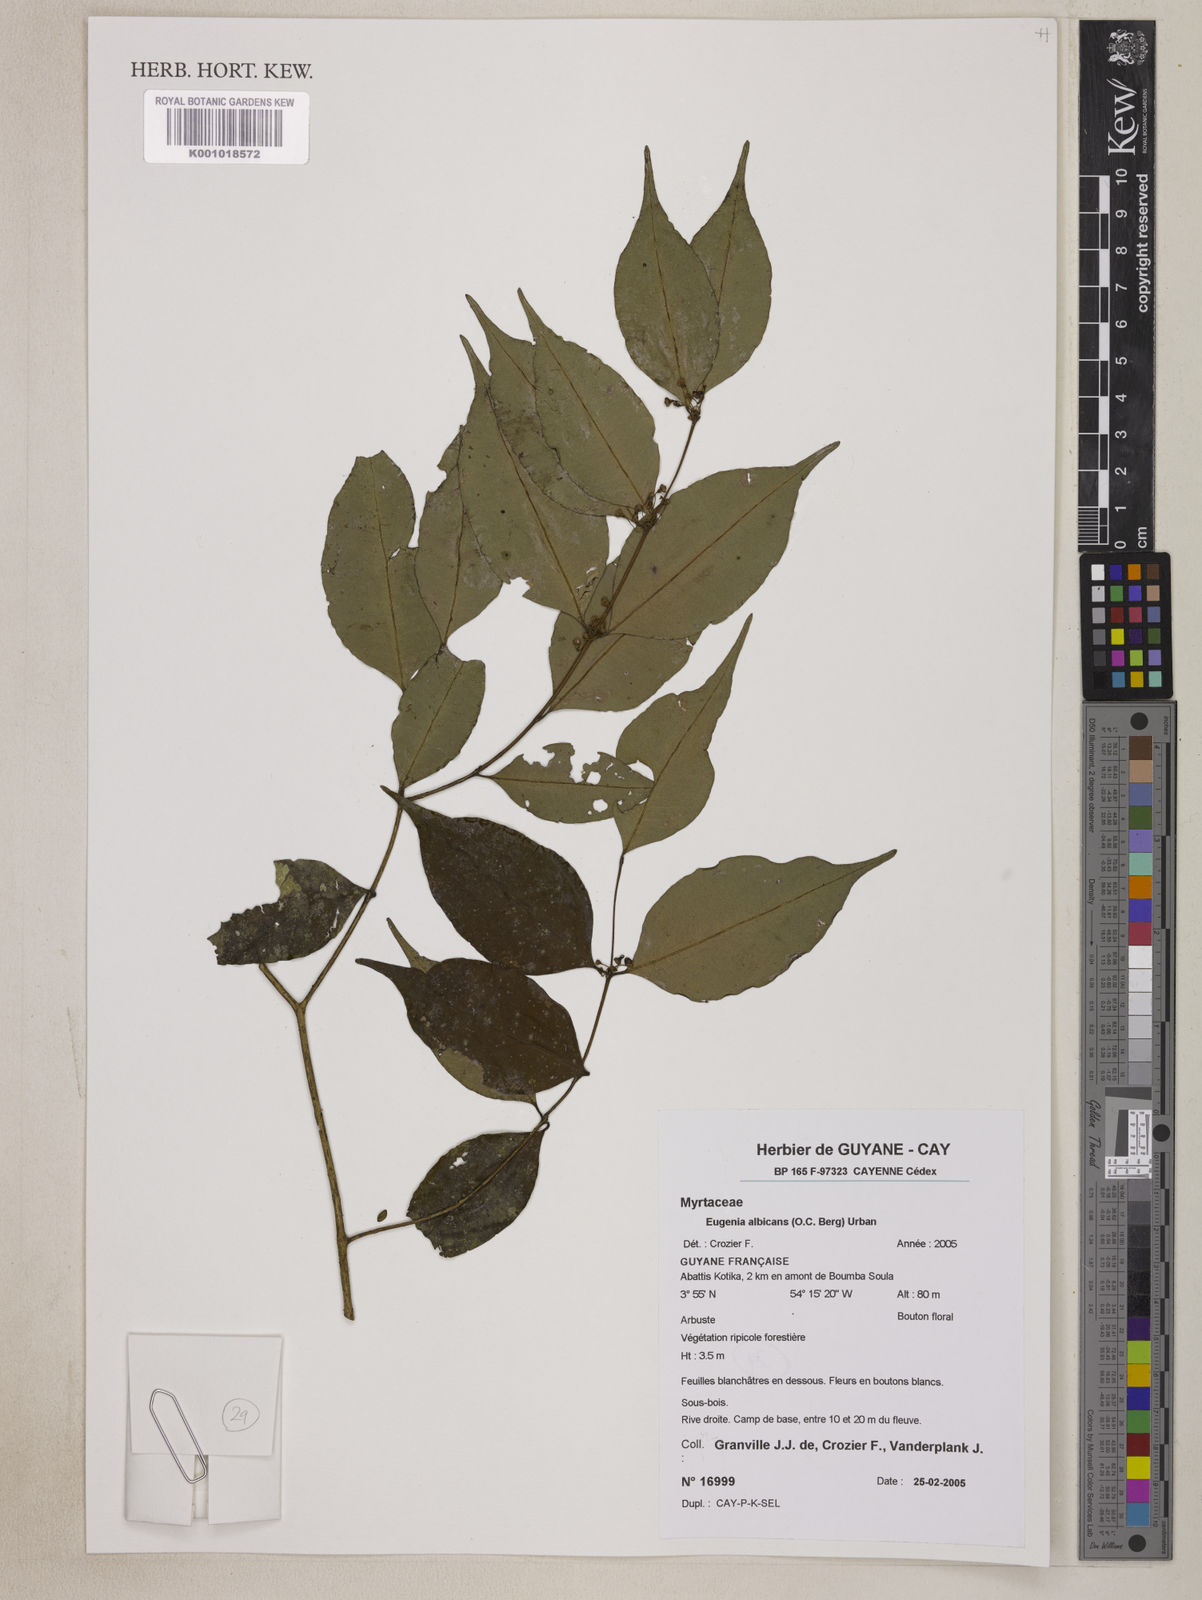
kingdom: Plantae
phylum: Tracheophyta
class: Magnoliopsida
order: Myrtales
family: Myrtaceae
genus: Eugenia
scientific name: Eugenia albicans
